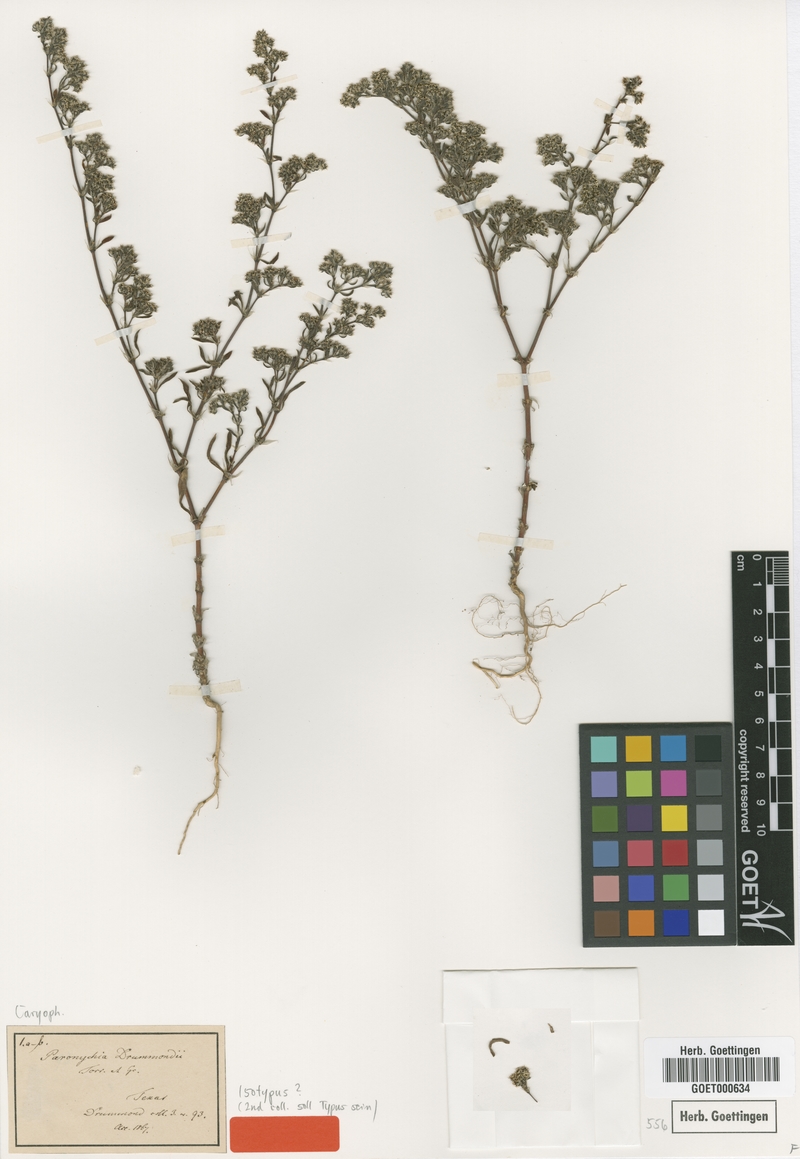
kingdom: Plantae
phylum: Tracheophyta
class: Magnoliopsida
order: Caryophyllales
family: Caryophyllaceae
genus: Paronychia
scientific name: Paronychia drummondii
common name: Drummond's nailwort
